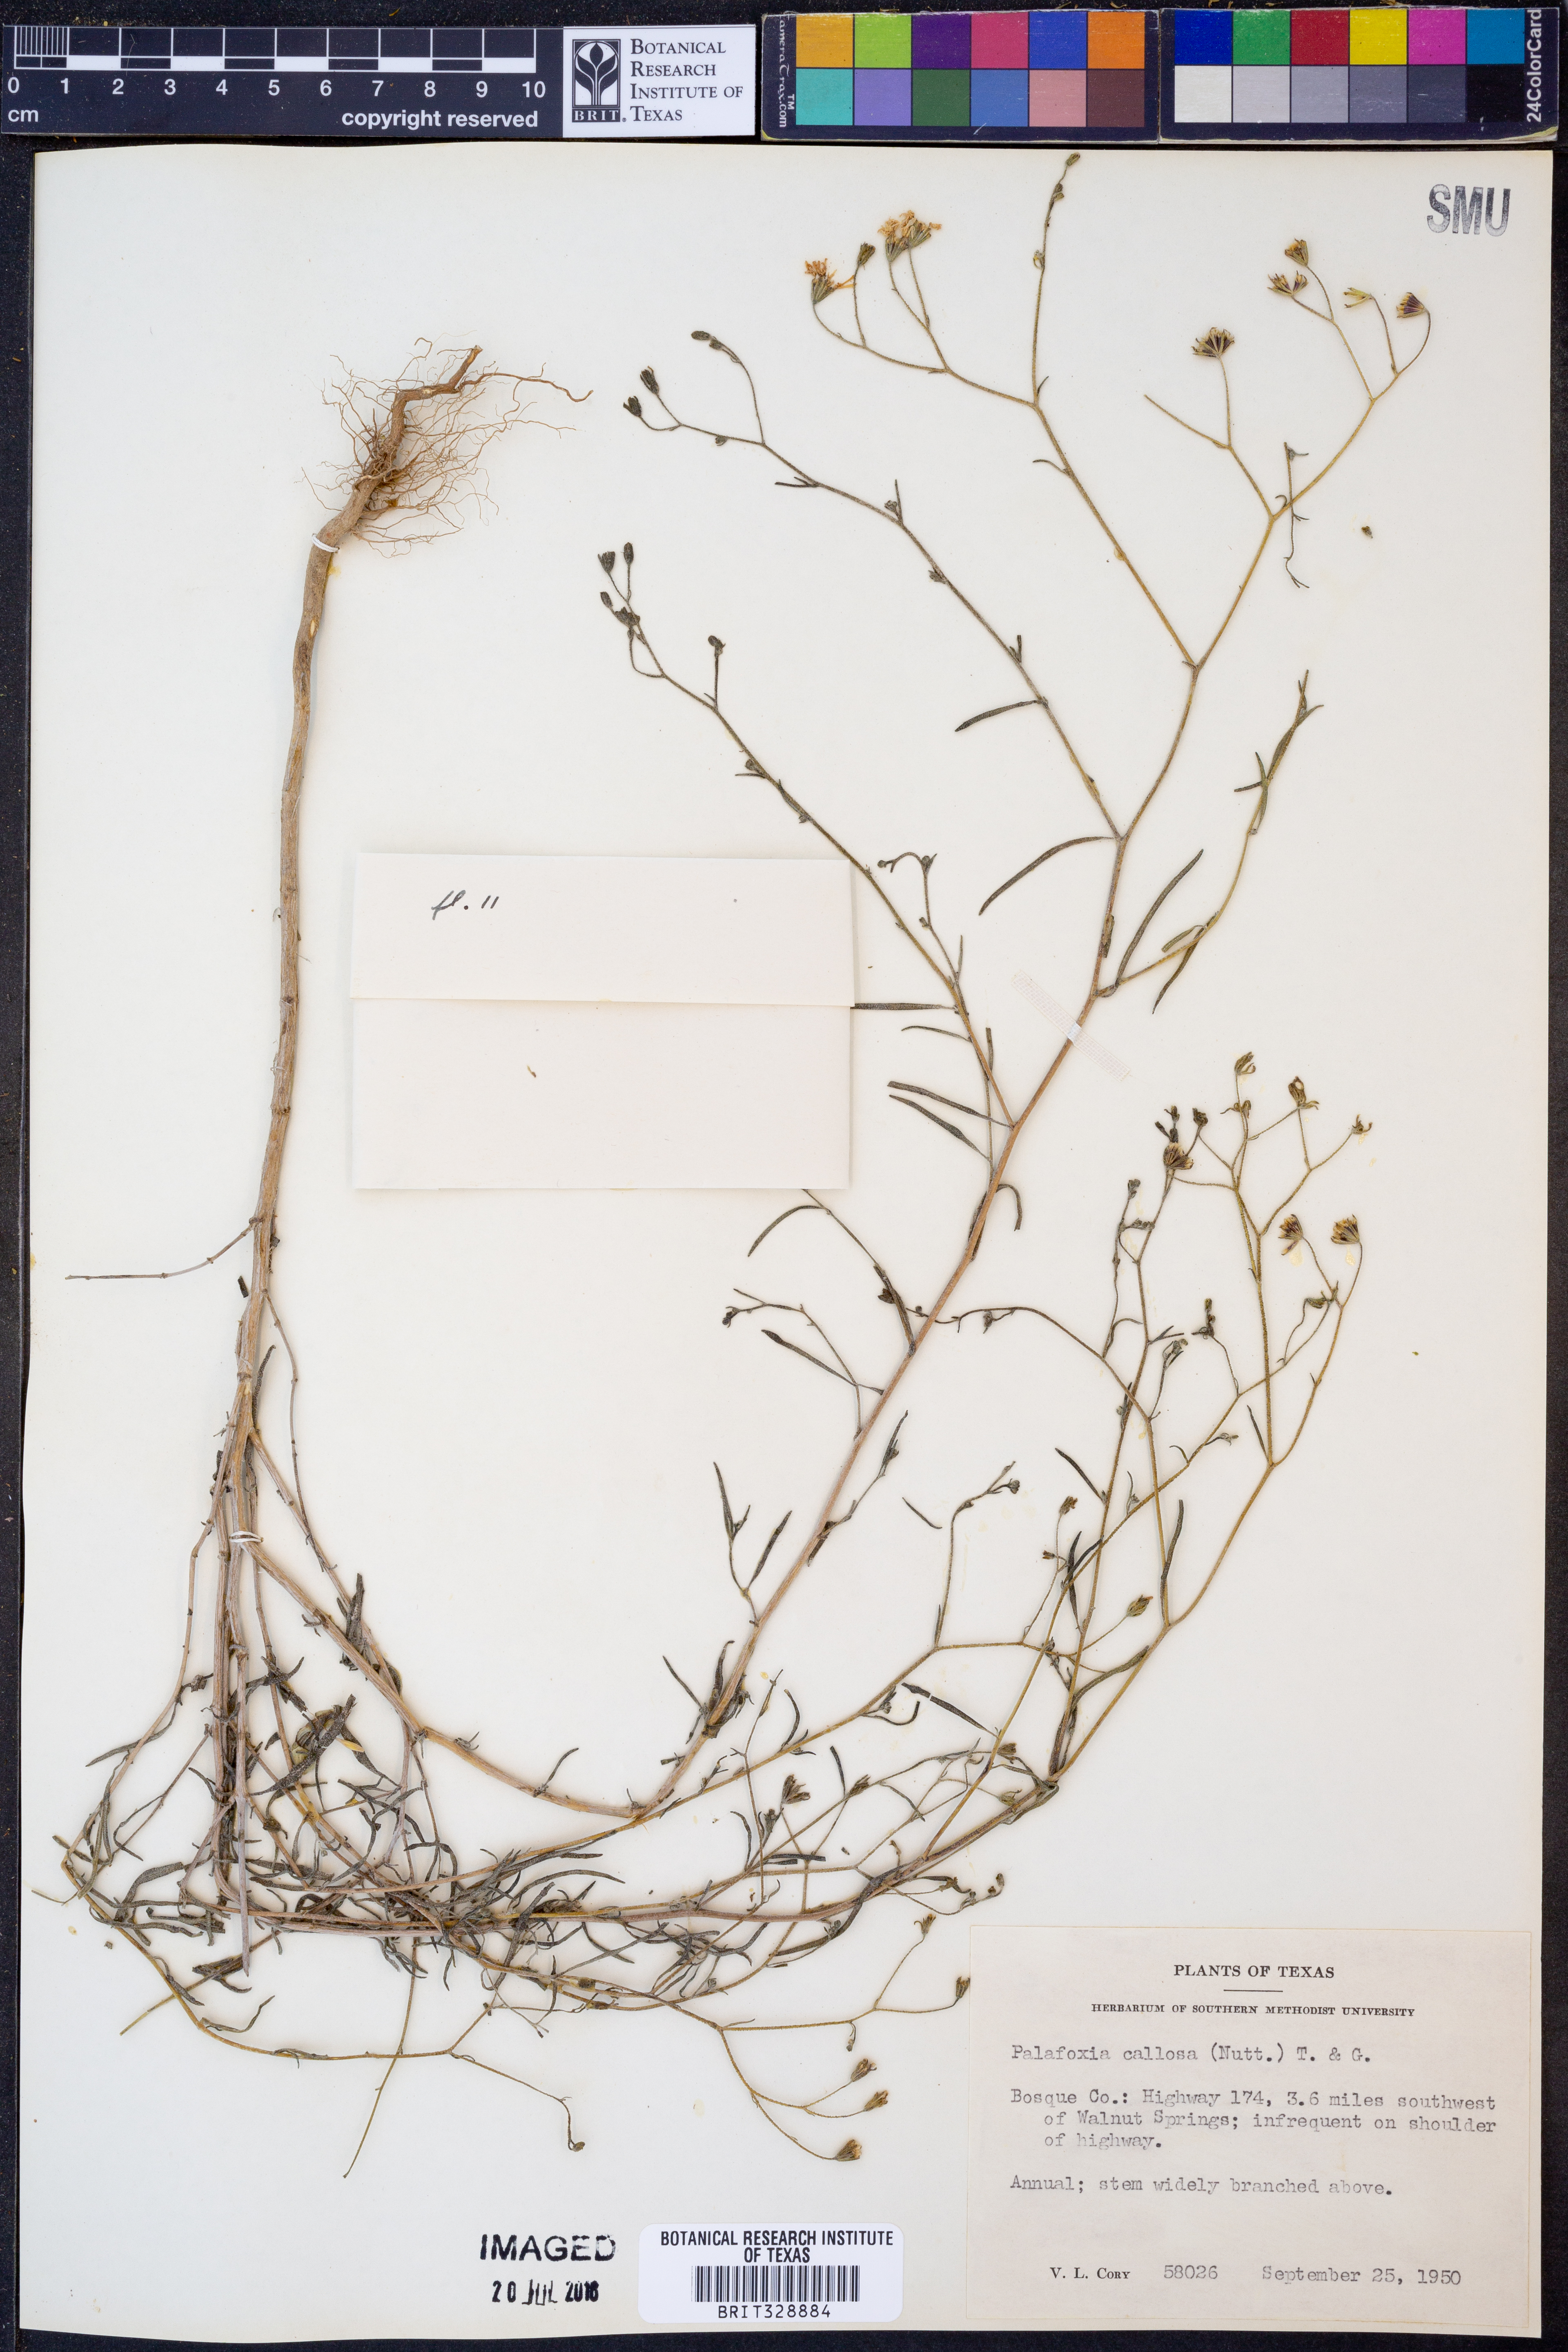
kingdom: Plantae
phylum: Tracheophyta
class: Magnoliopsida
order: Asterales
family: Asteraceae
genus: Palafoxia
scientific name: Palafoxia callosa
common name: Small palafox
